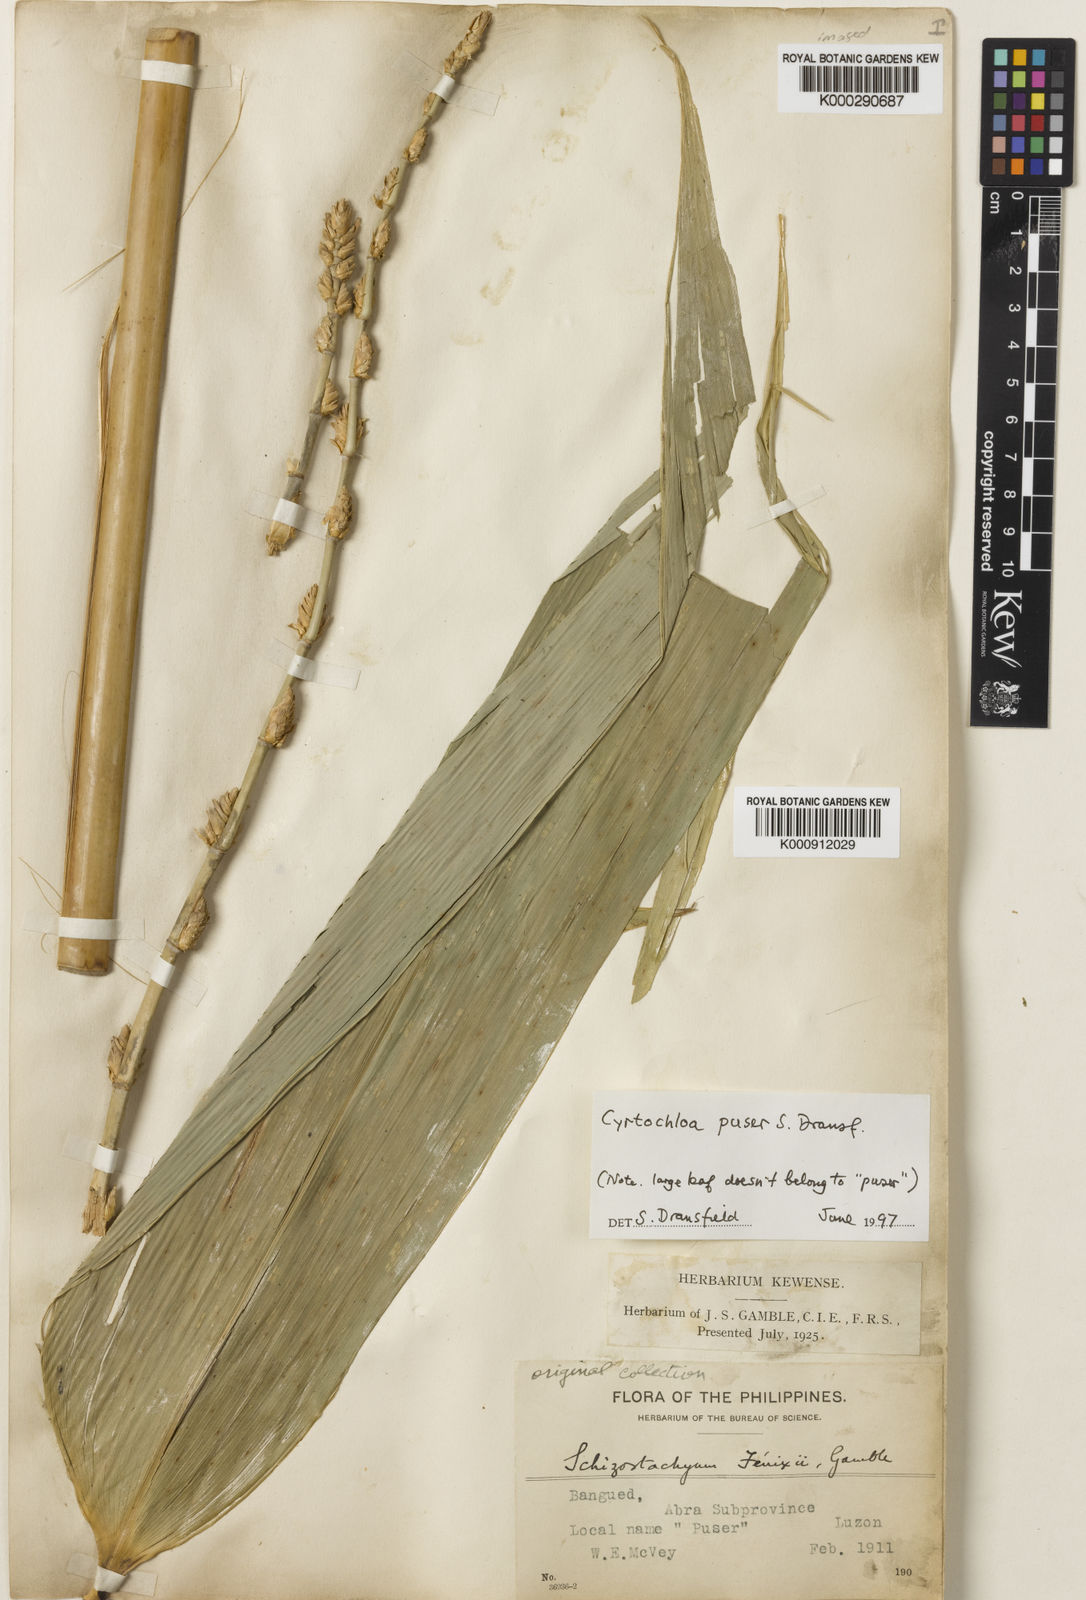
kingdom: Plantae
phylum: Tracheophyta
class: Liliopsida
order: Poales
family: Poaceae
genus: Cyrtochloa
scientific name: Cyrtochloa puser
